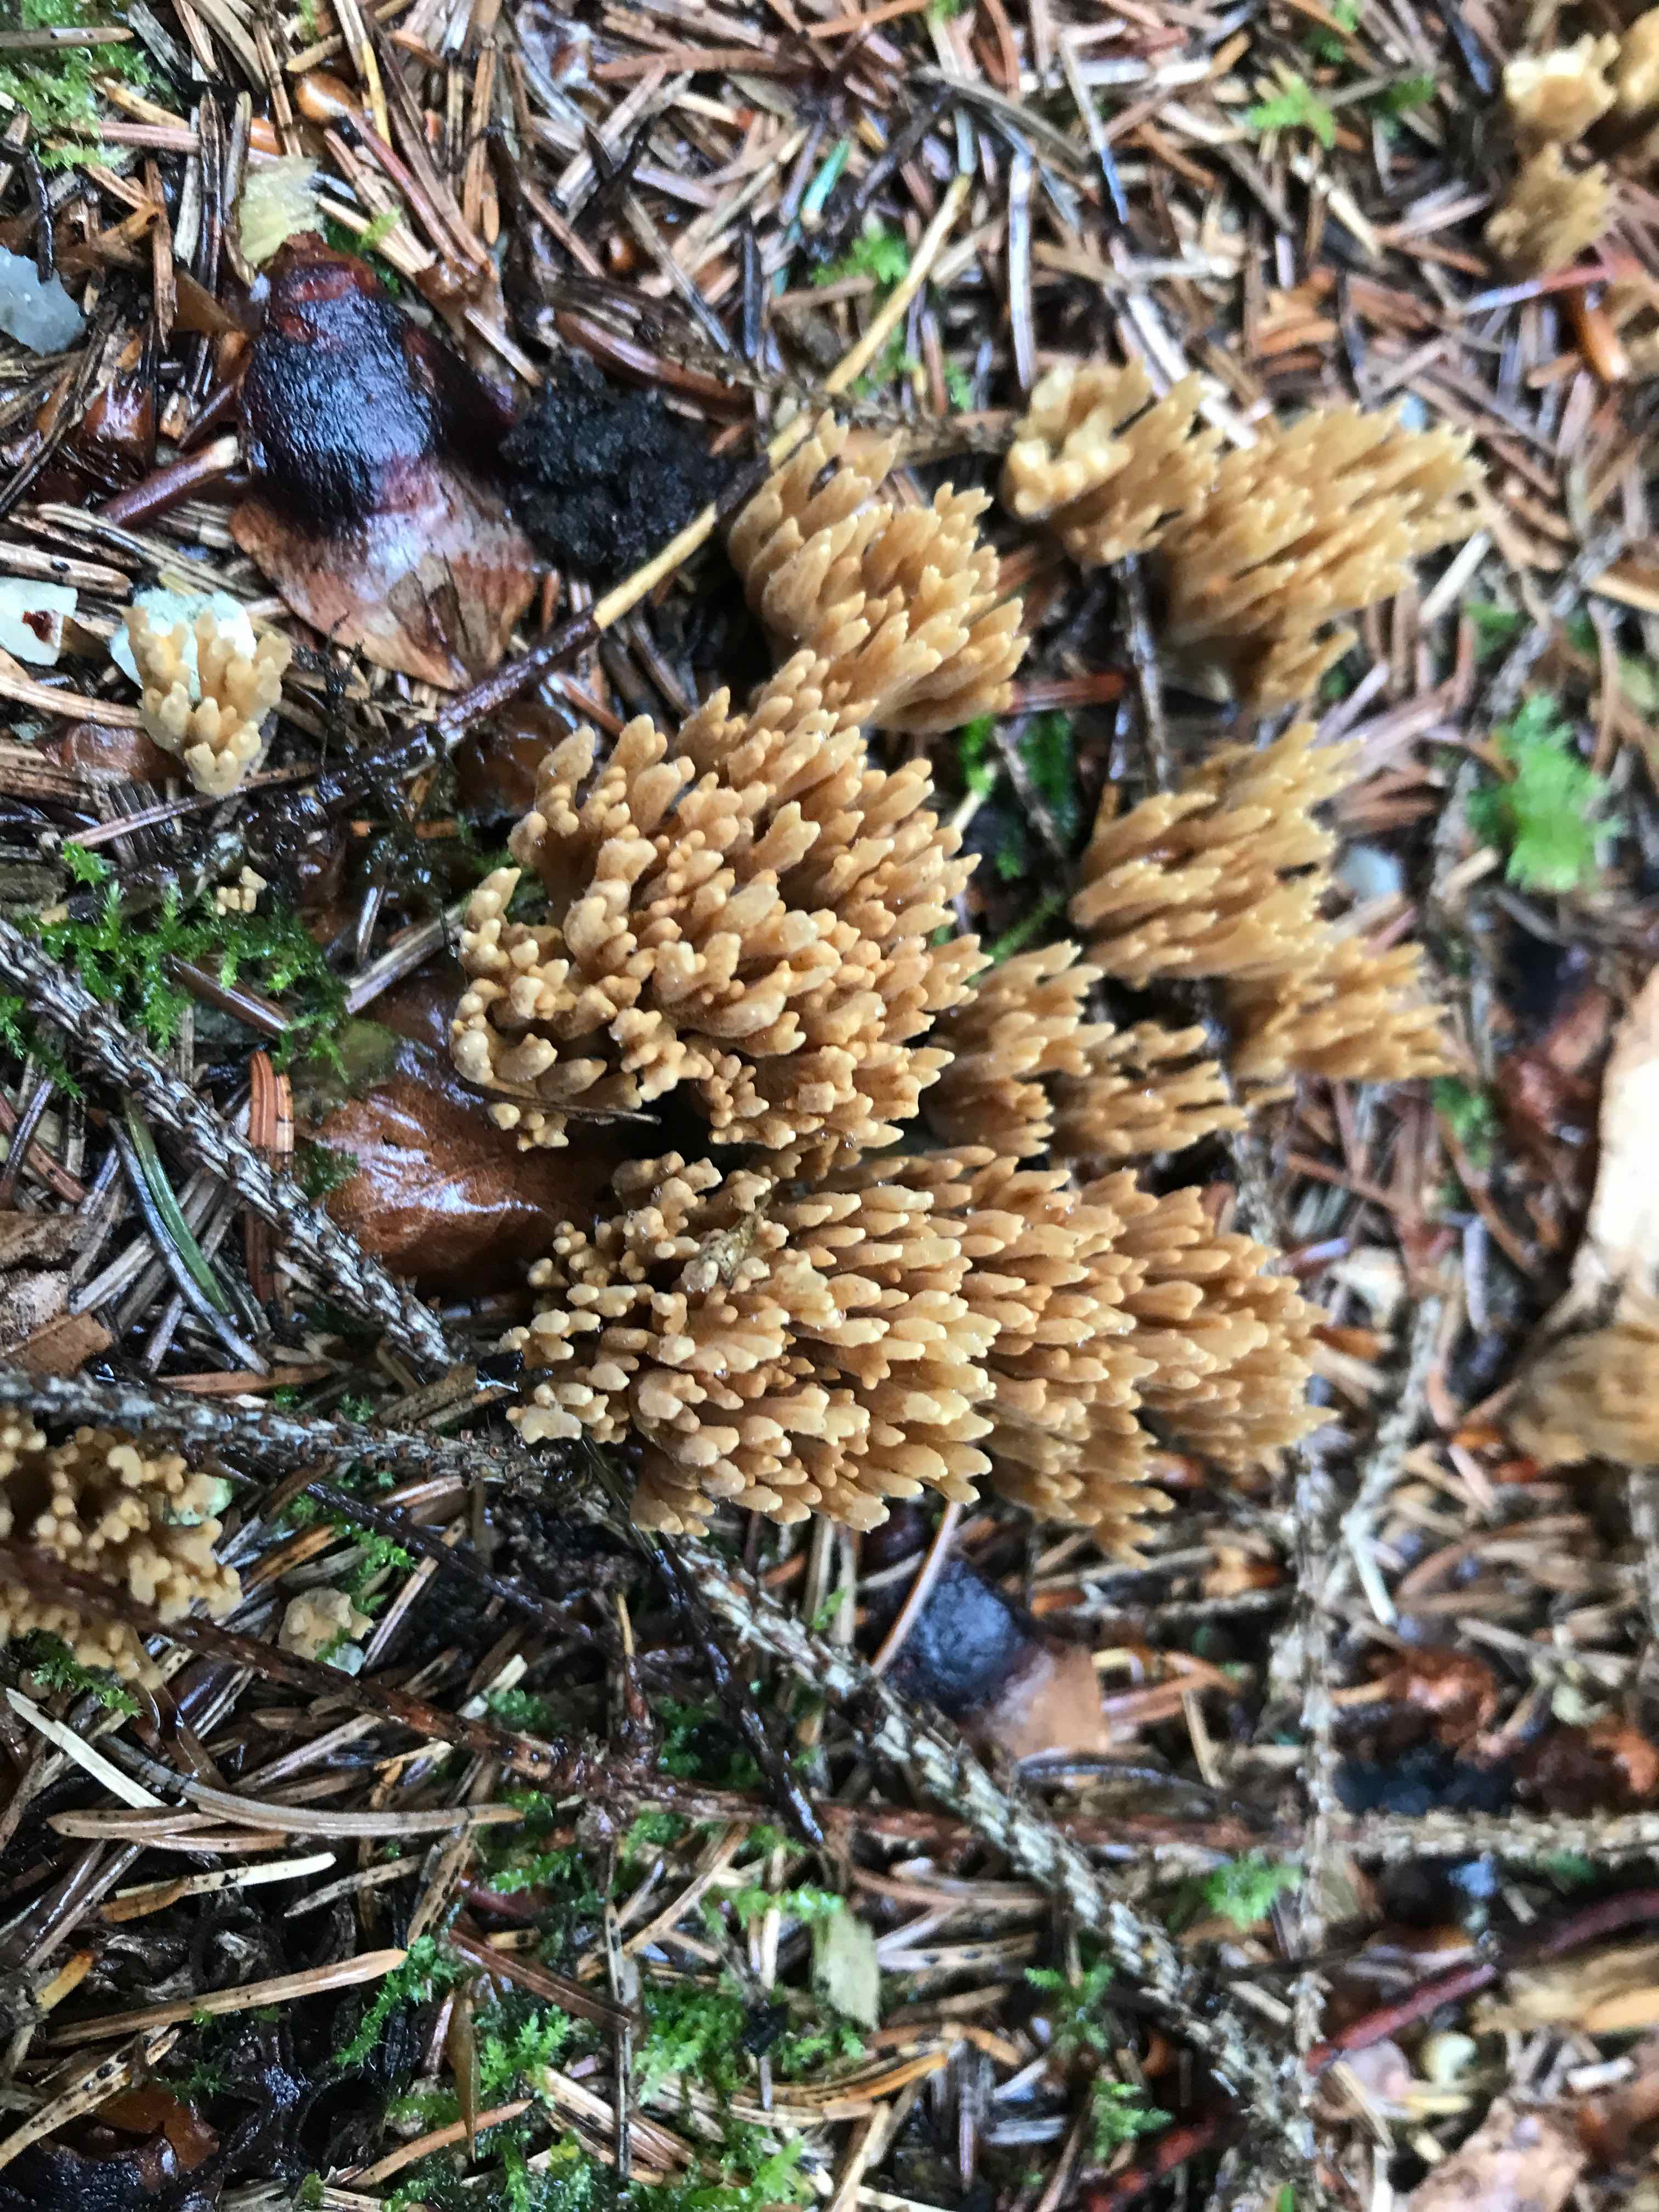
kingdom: Fungi
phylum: Basidiomycota
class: Agaricomycetes
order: Gomphales
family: Gomphaceae
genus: Phaeoclavulina
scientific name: Phaeoclavulina eumorpha
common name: gran-koralsvamp
